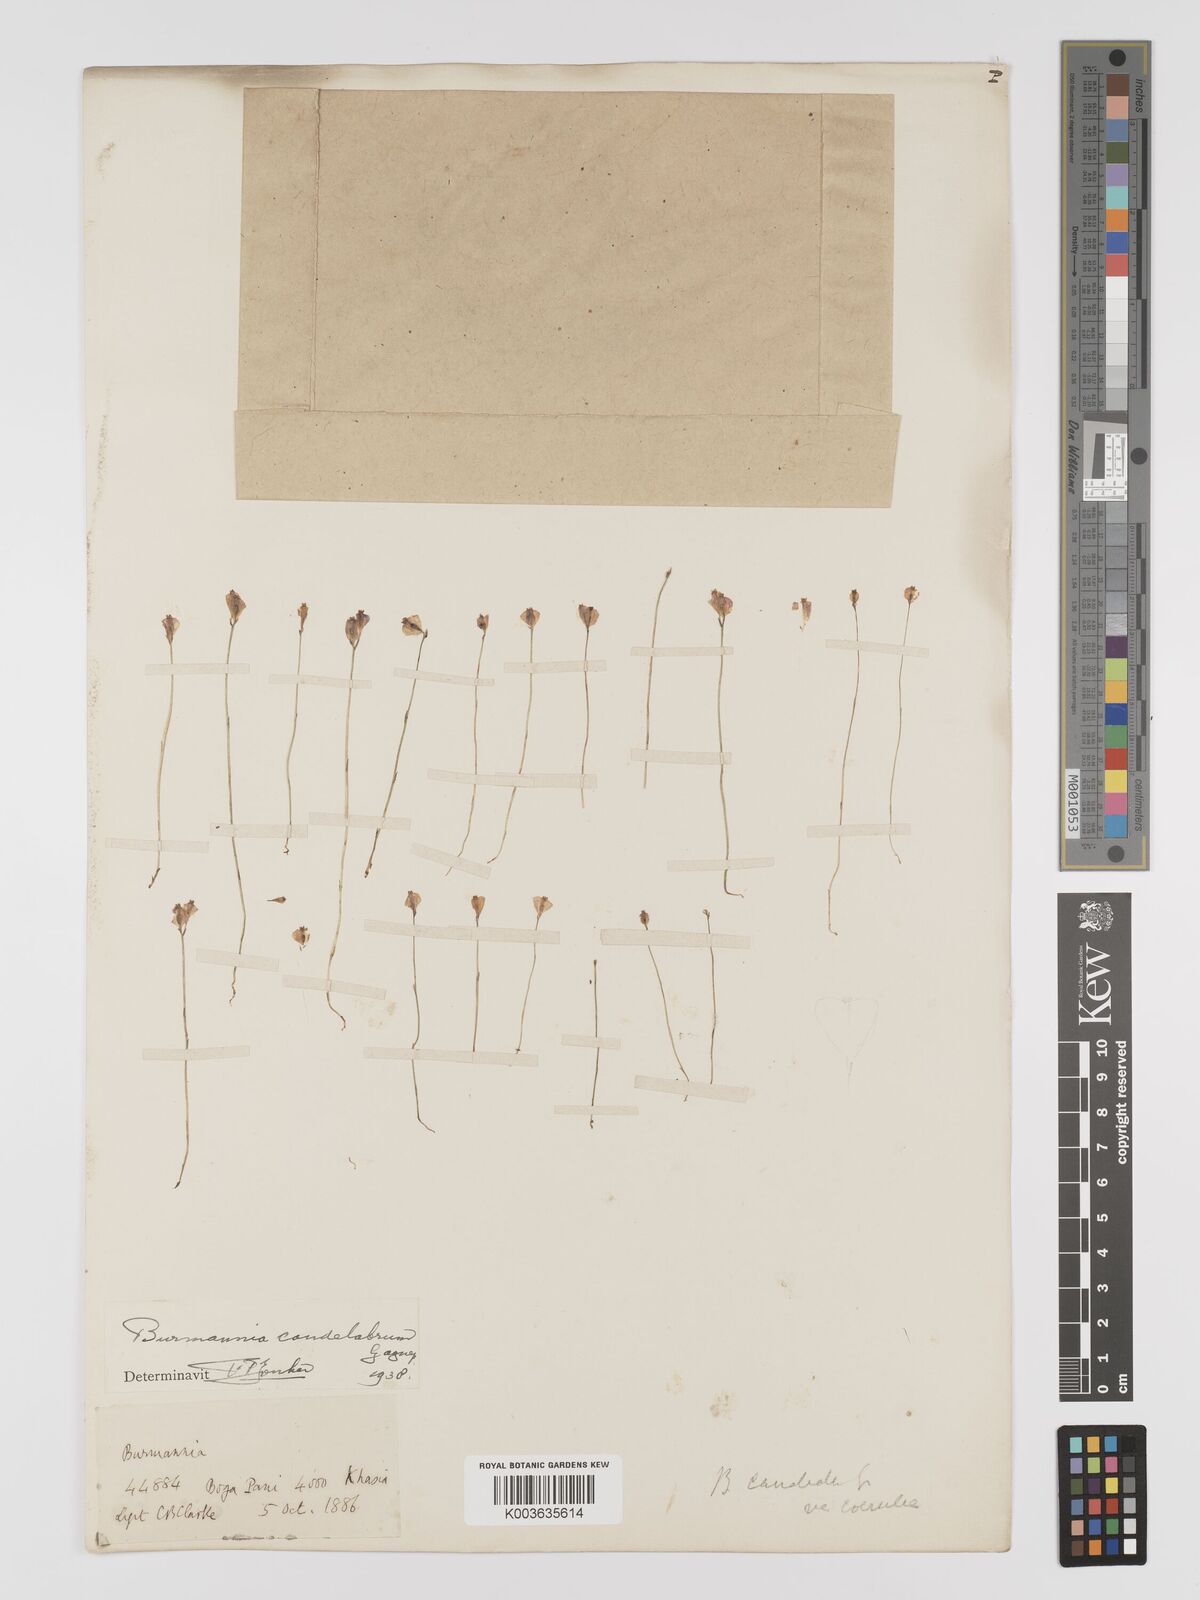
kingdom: Plantae
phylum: Tracheophyta
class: Liliopsida
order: Dioscoreales
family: Burmanniaceae
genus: Burmannia
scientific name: Burmannia candelabrum
